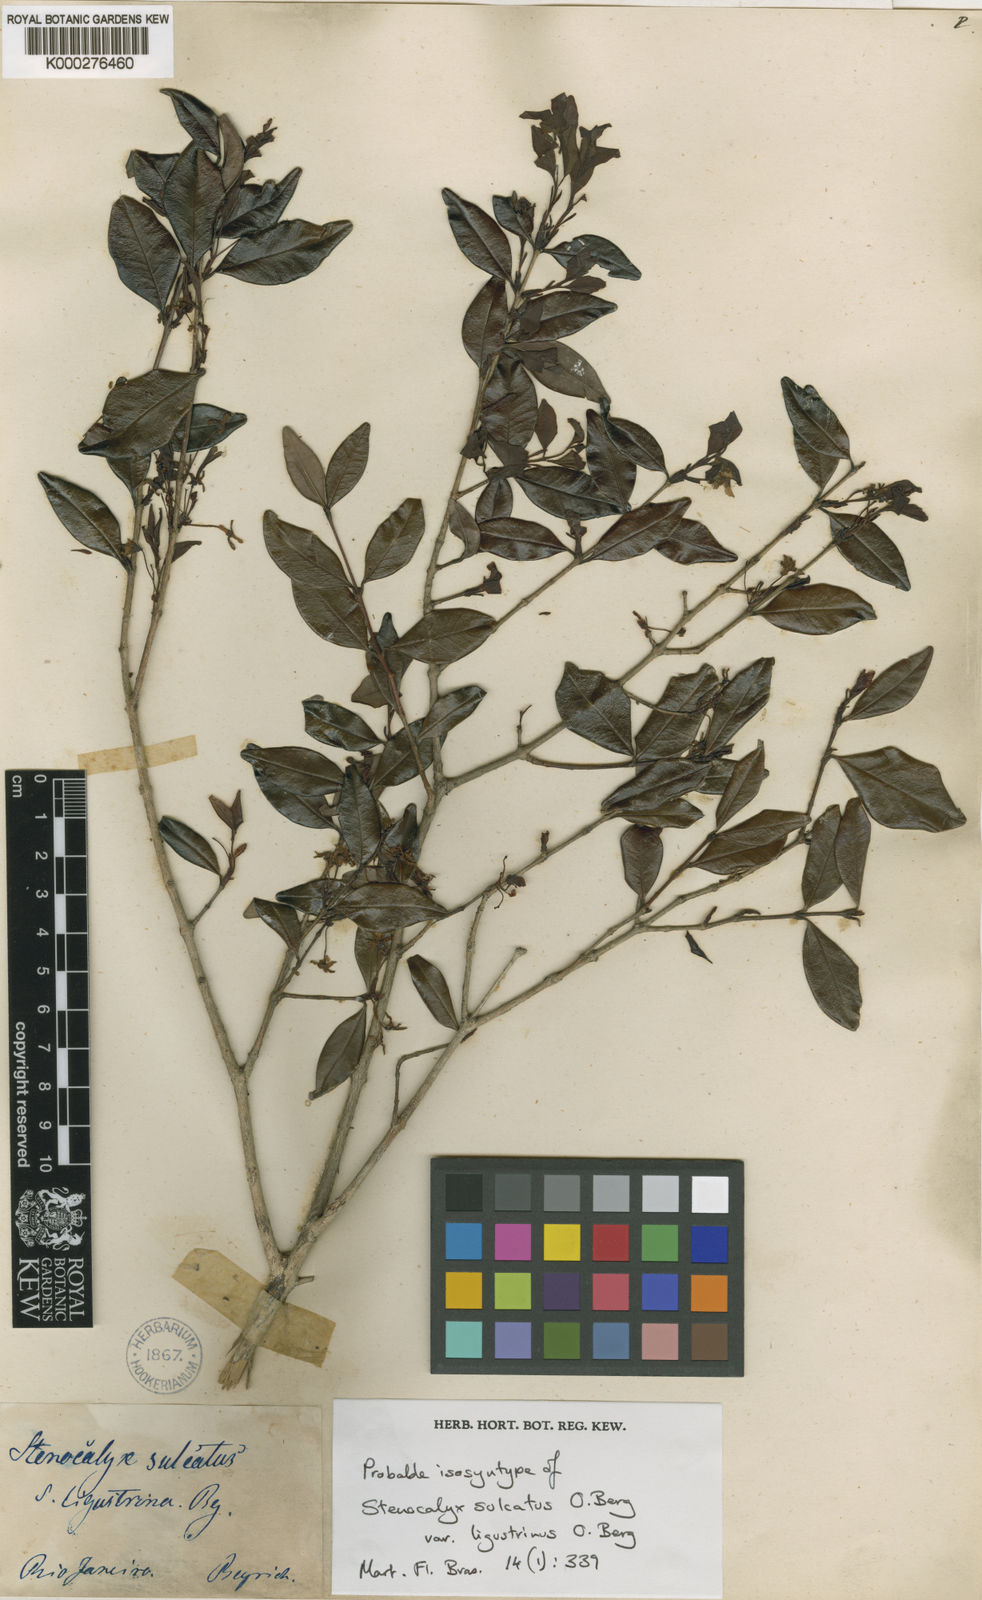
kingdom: Plantae
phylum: Tracheophyta
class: Magnoliopsida
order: Myrtales
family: Myrtaceae
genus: Eugenia
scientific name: Eugenia sulcata
